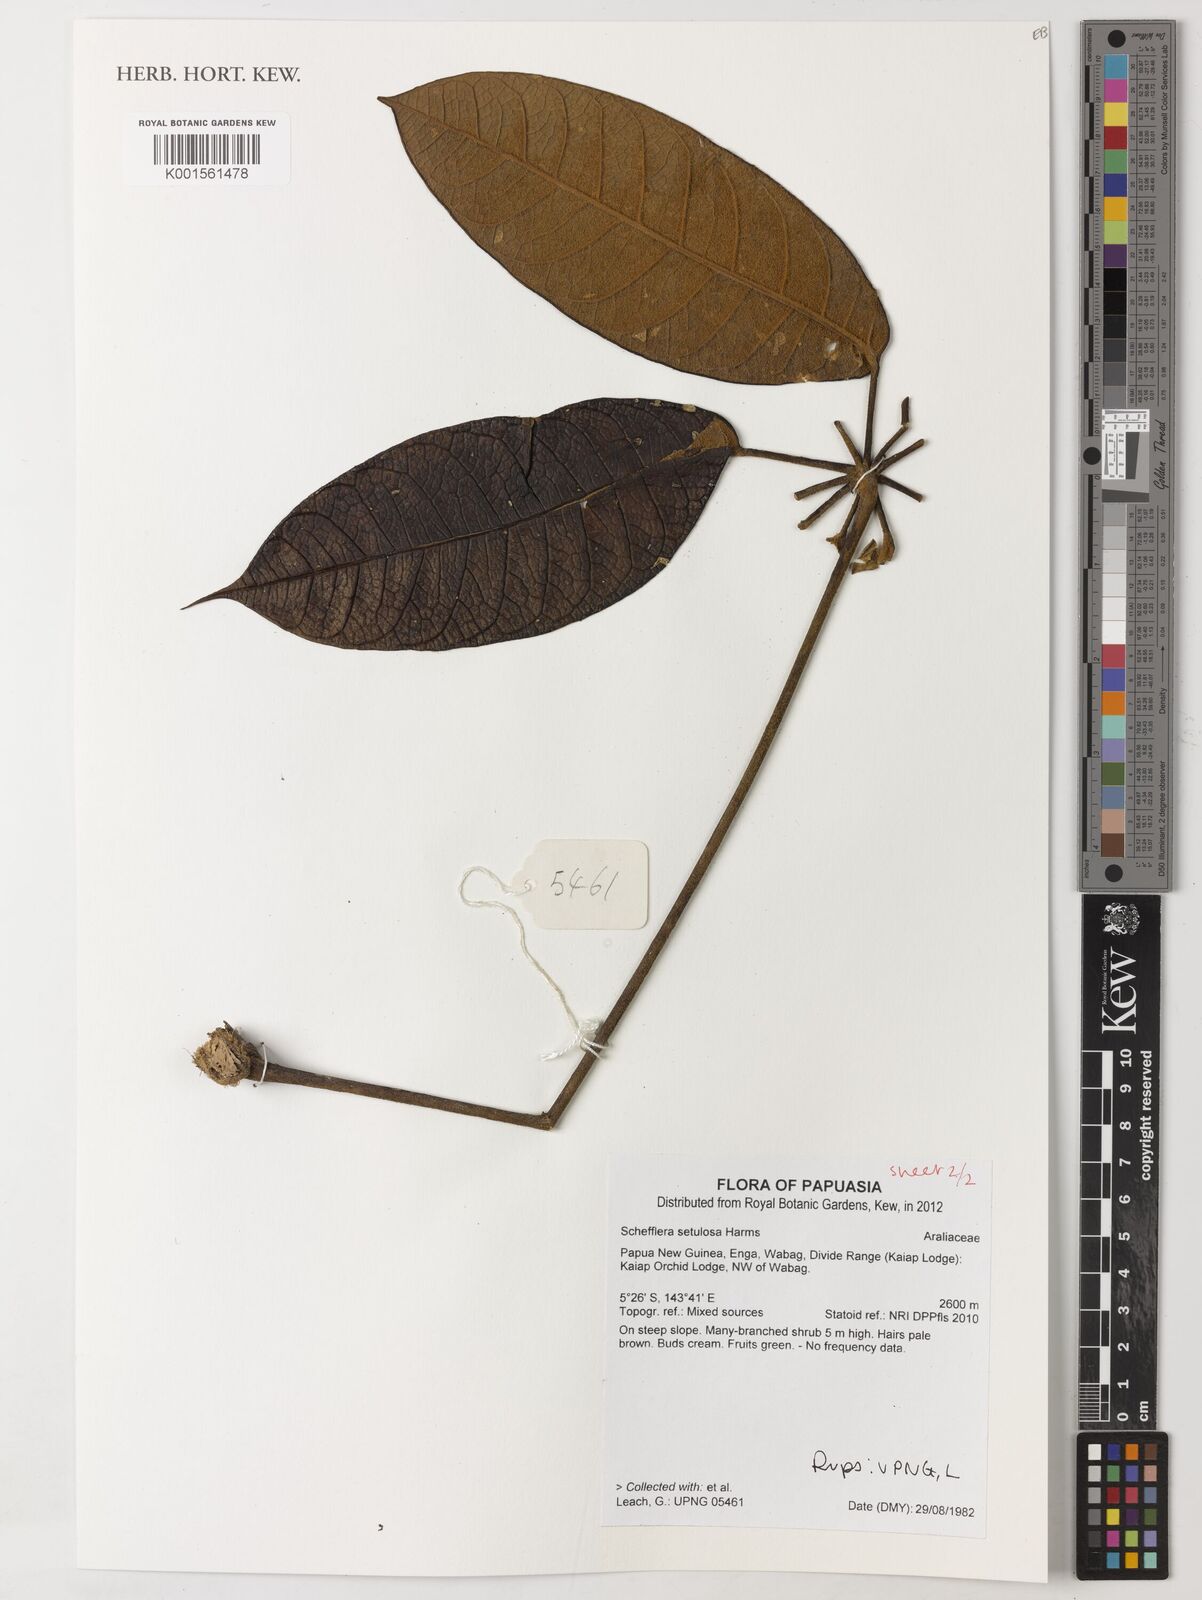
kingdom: Plantae
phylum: Tracheophyta
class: Magnoliopsida
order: Apiales
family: Araliaceae
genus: Heptapleurum
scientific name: Heptapleurum setulosum
